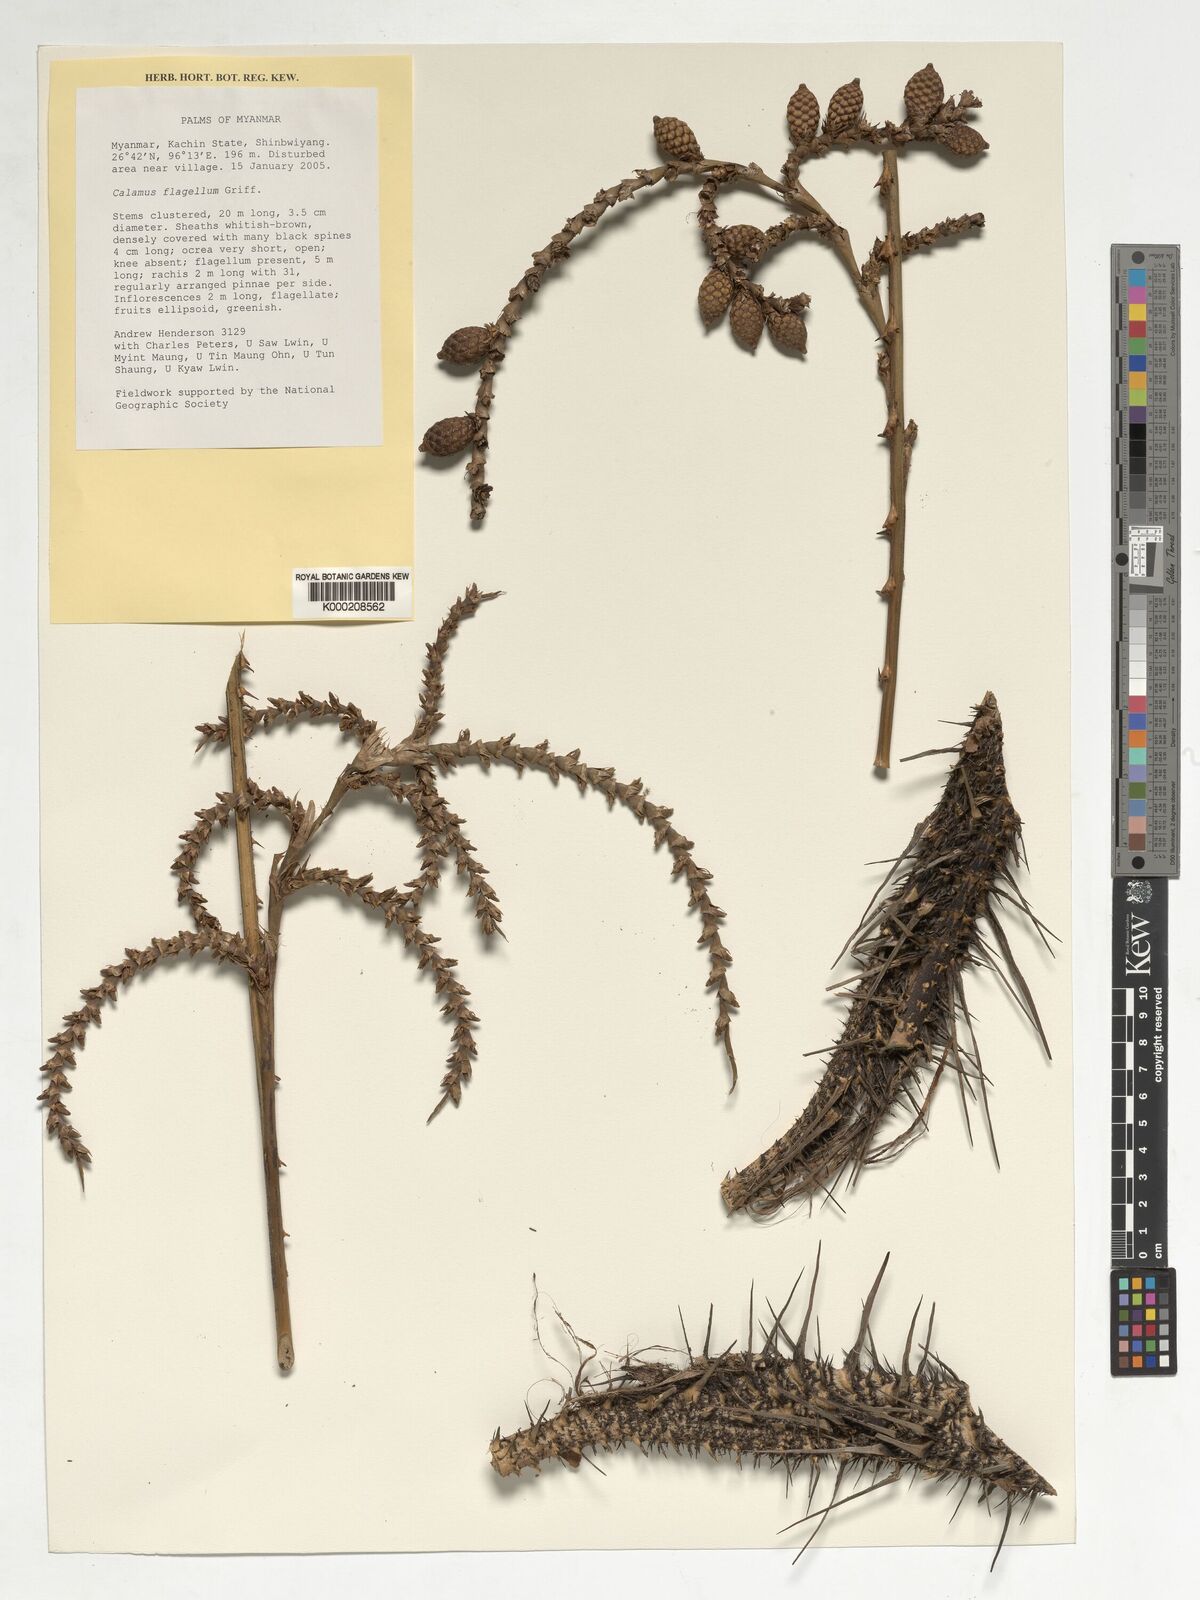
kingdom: Plantae
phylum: Tracheophyta
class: Liliopsida
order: Arecales
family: Arecaceae
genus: Calamus
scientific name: Calamus
